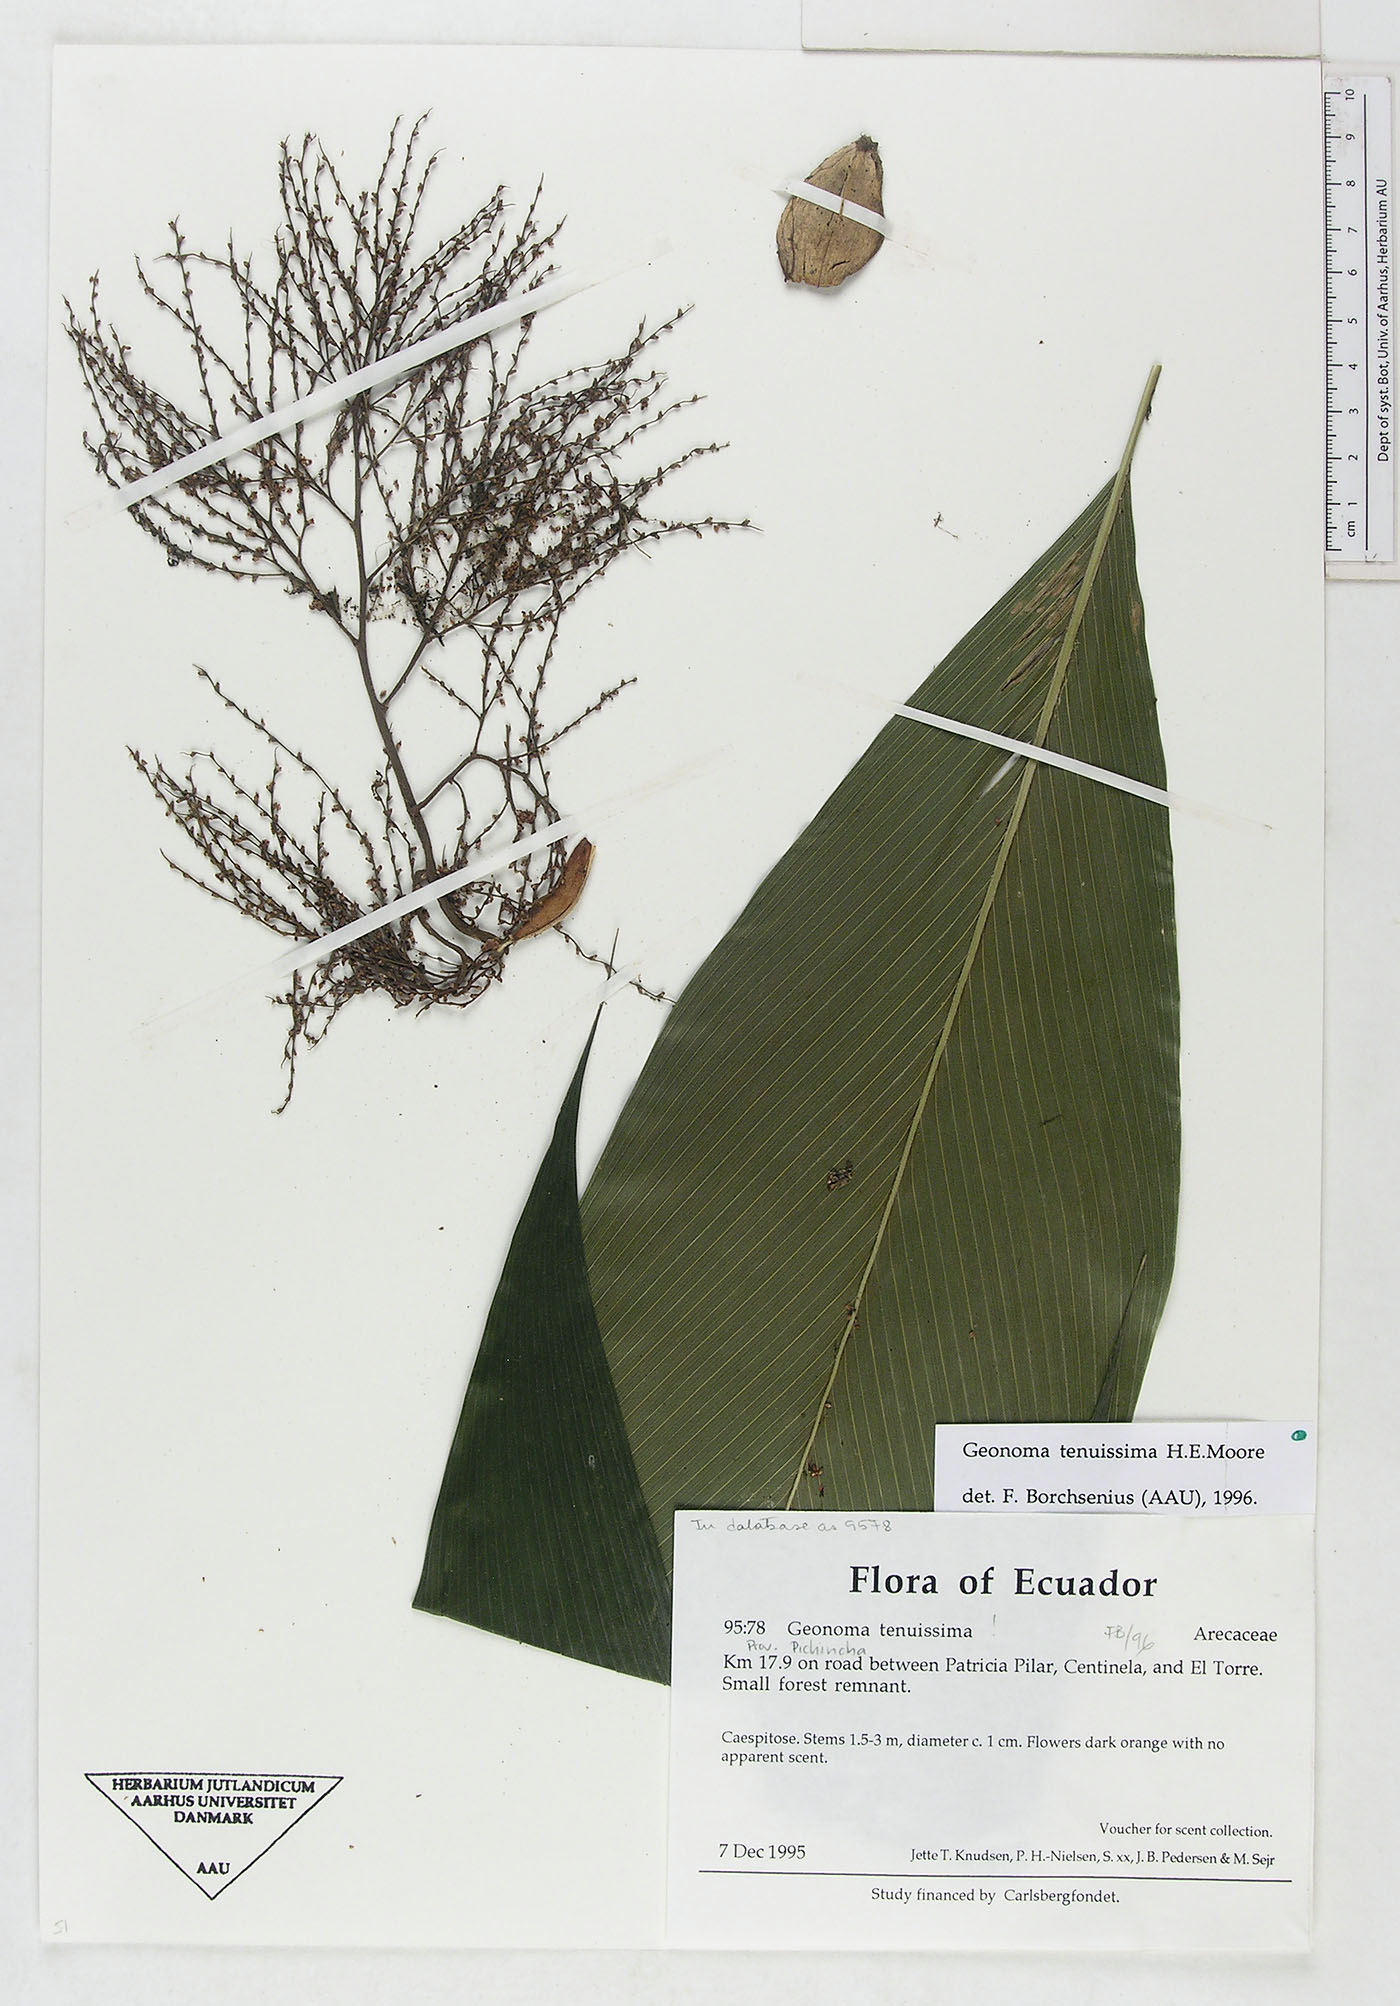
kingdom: Plantae
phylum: Tracheophyta
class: Liliopsida
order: Arecales
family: Arecaceae
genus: Geonoma
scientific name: Geonoma tenuissima
